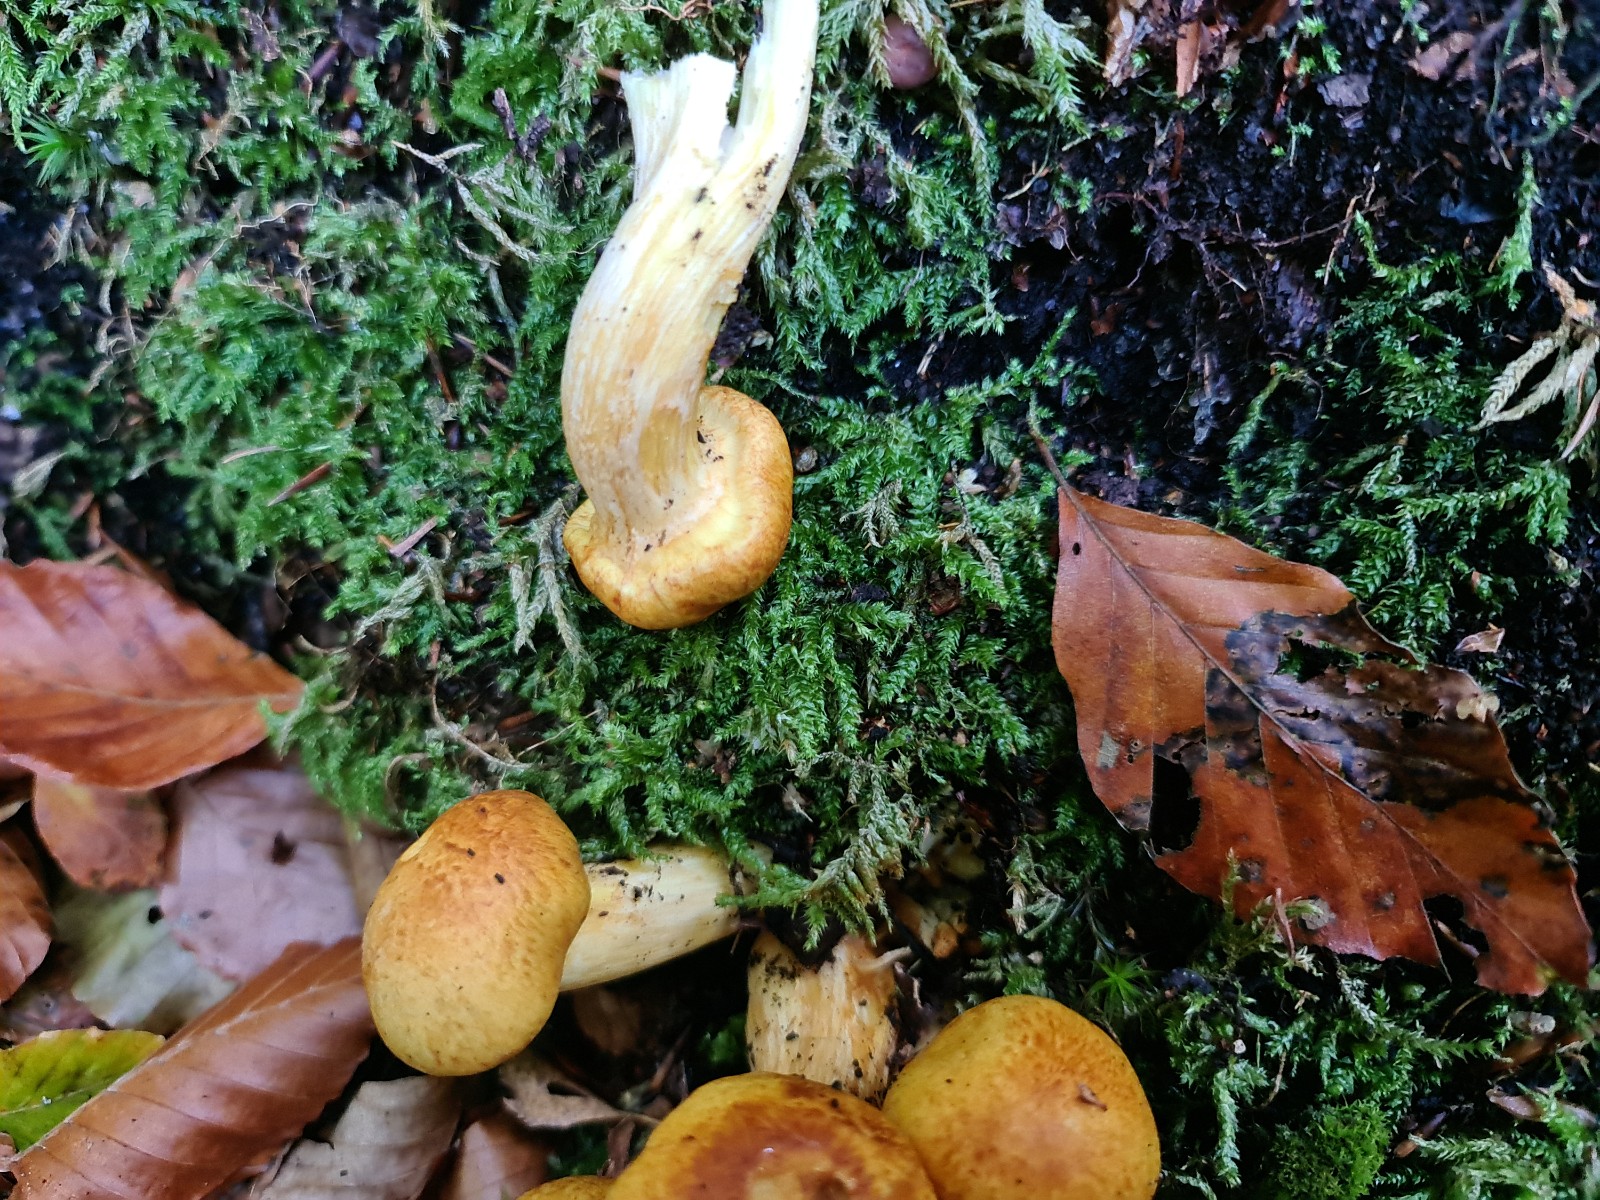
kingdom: Fungi
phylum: Basidiomycota
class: Agaricomycetes
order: Agaricales
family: Hymenogastraceae
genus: Gymnopilus
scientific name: Gymnopilus spectabilis
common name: fibret flammehat
